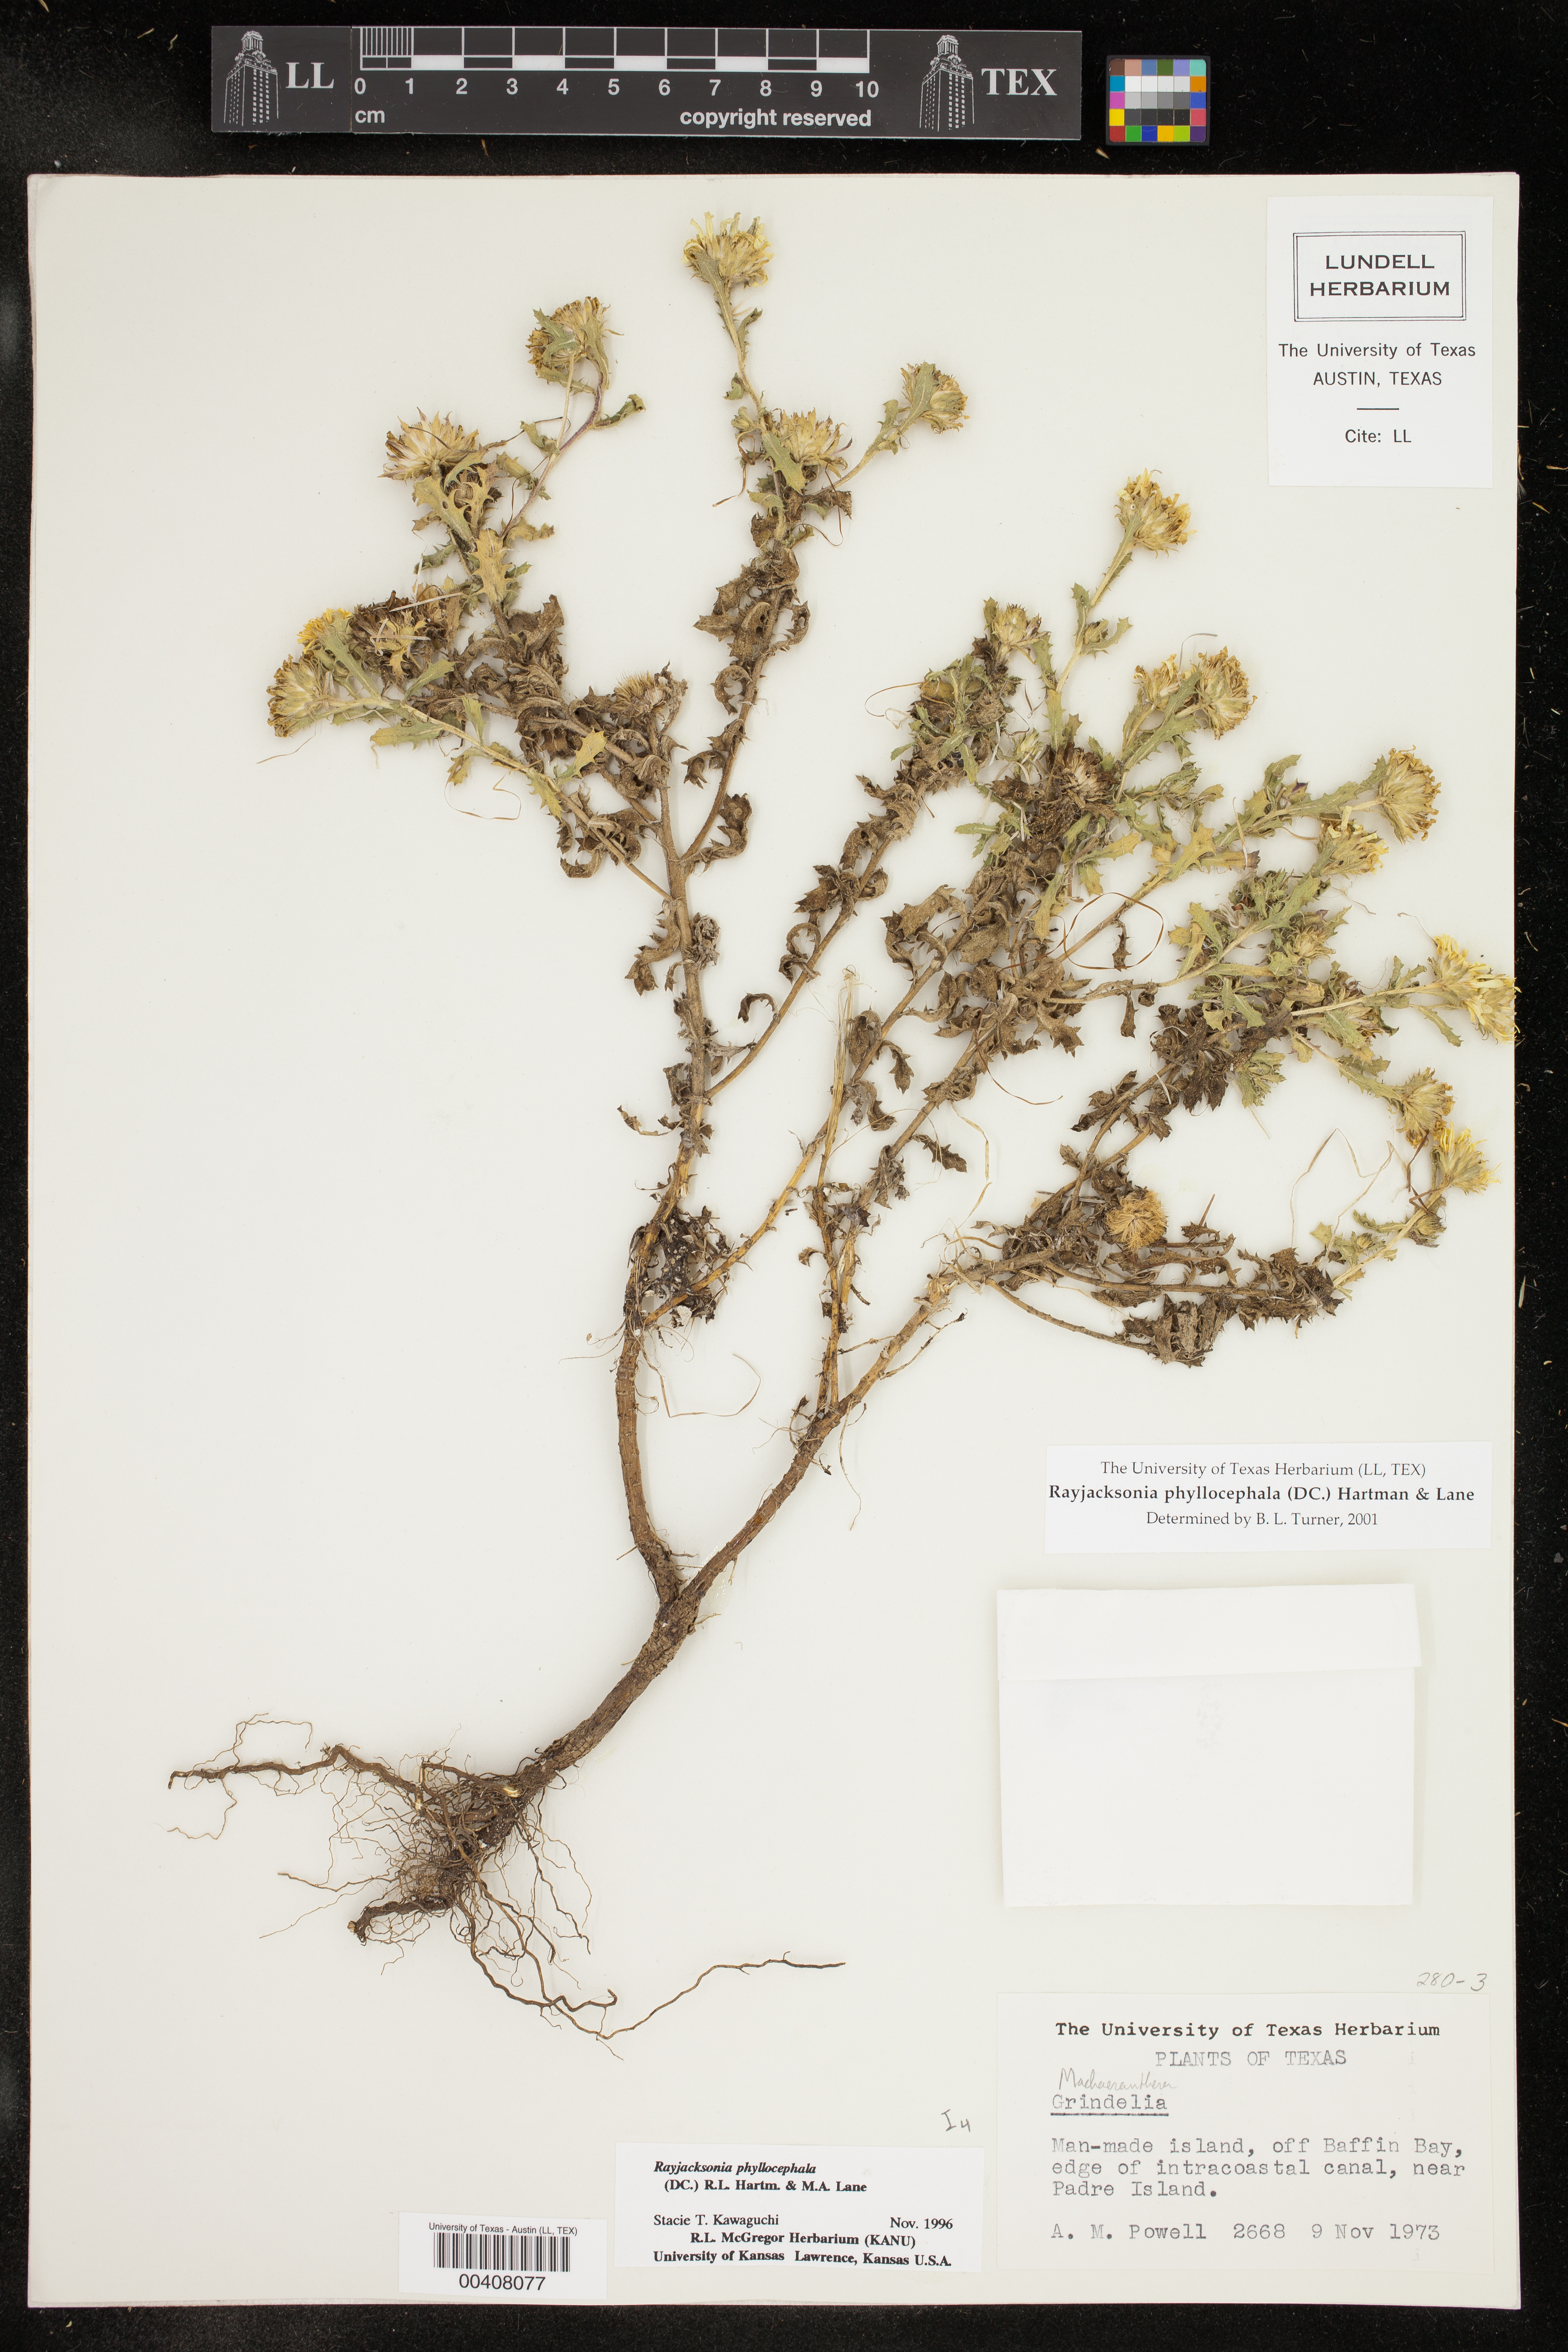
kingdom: Plantae
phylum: Tracheophyta
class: Magnoliopsida
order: Asterales
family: Asteraceae
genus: Rayjacksonia
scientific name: Rayjacksonia phyllocephala
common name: Gulf coast camphor daisy
